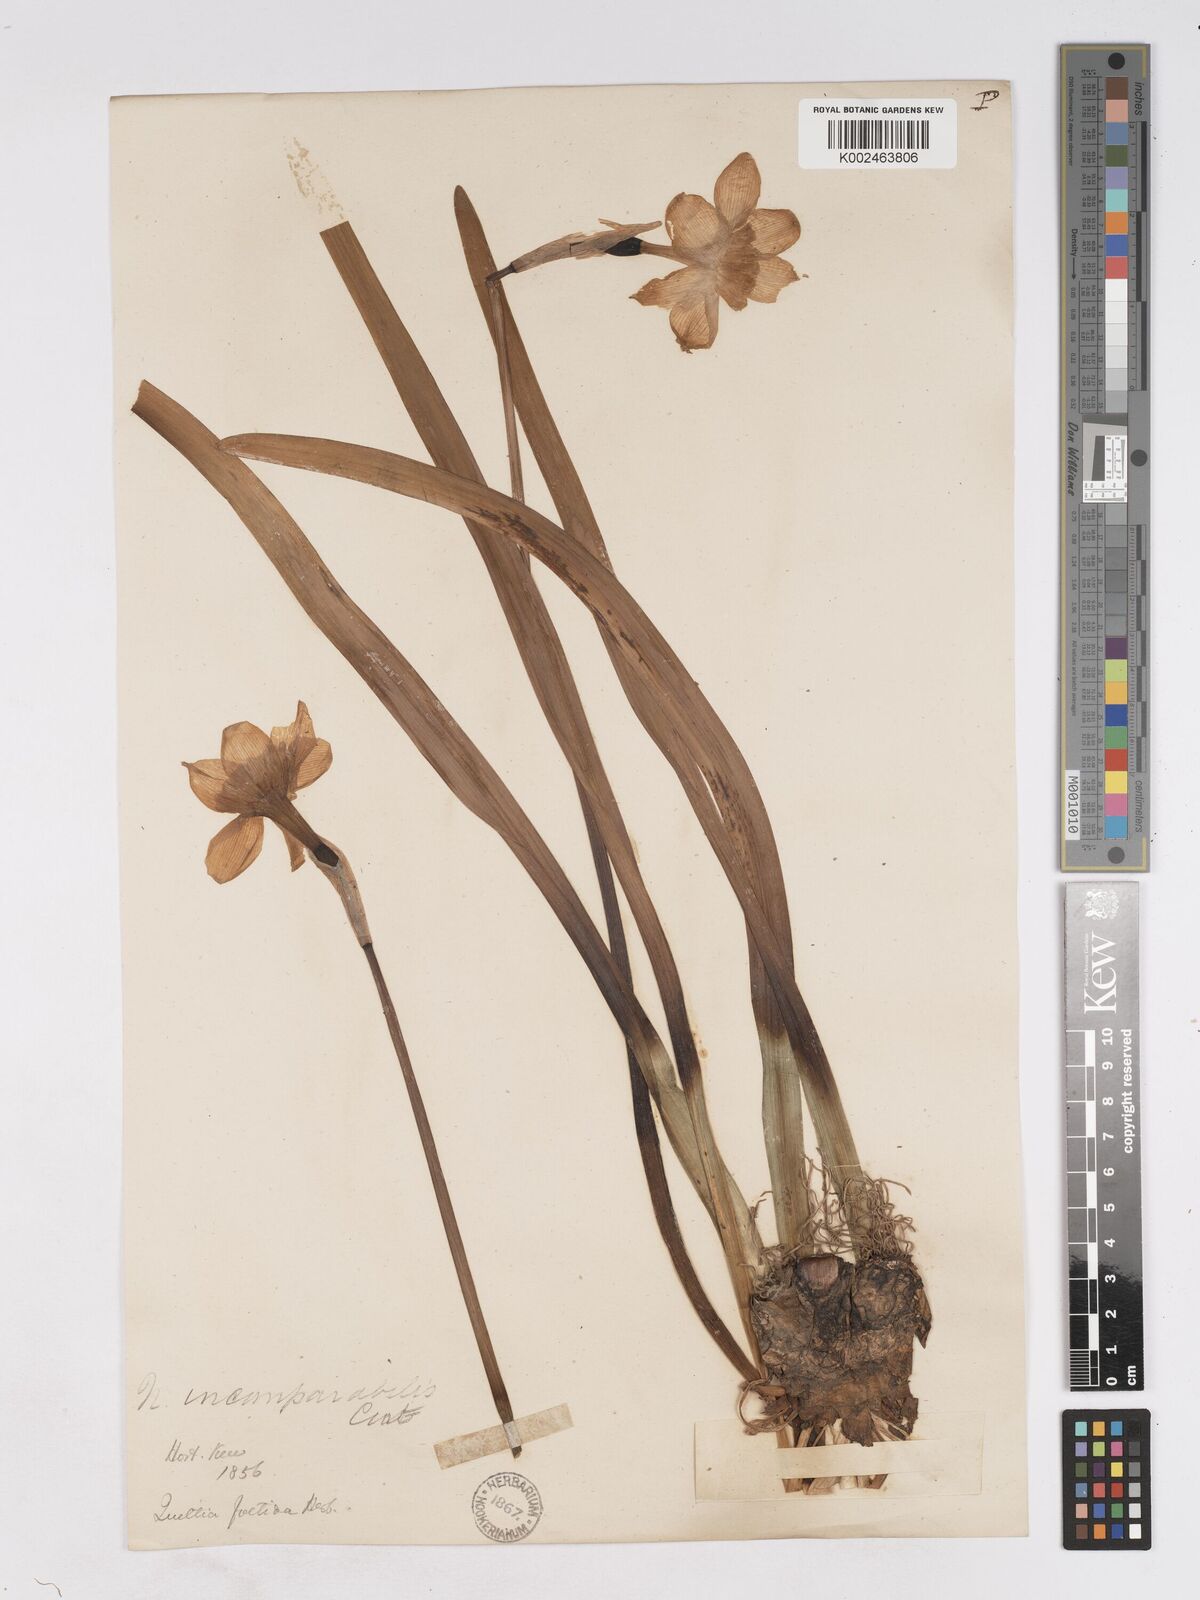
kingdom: Plantae
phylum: Tracheophyta
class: Liliopsida
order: Asparagales
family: Amaryllidaceae
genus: Narcissus
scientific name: Narcissus incomparabilis
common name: Nonesuch daffodil
